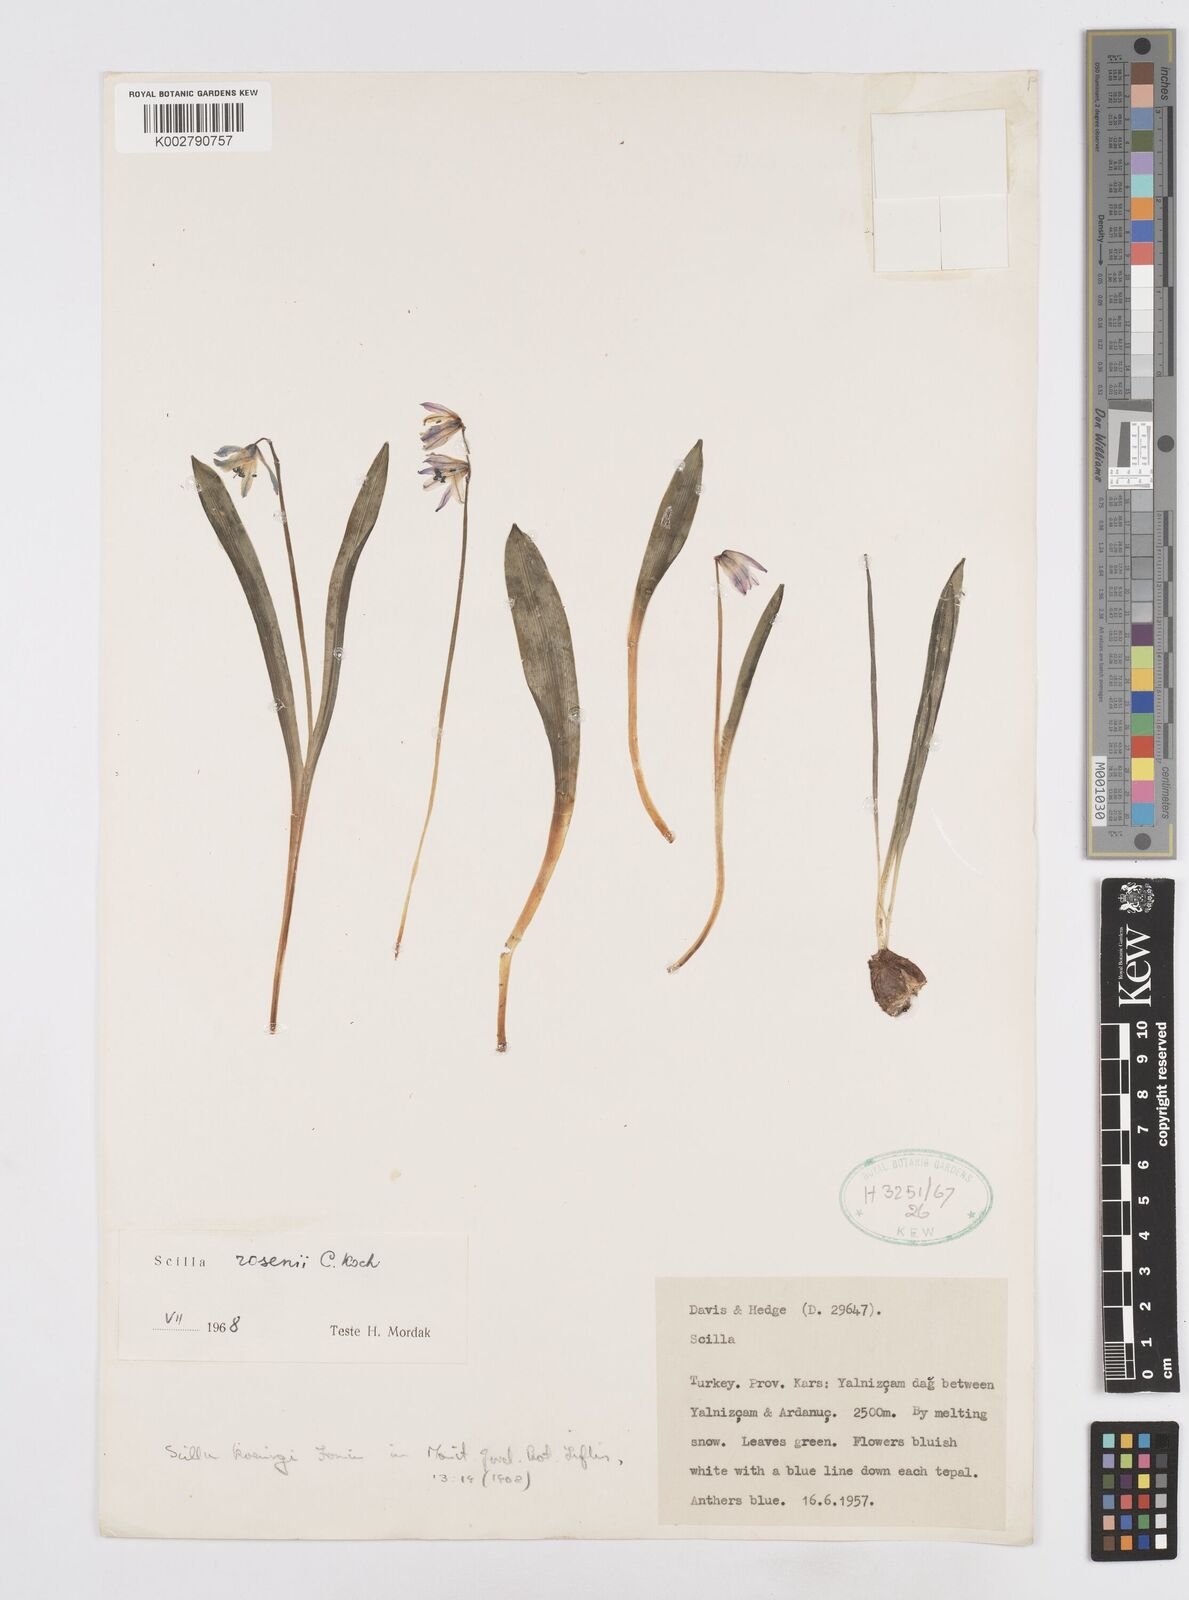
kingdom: Plantae
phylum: Tracheophyta
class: Liliopsida
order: Asparagales
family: Asparagaceae
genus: Scilla
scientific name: Scilla rosenii
